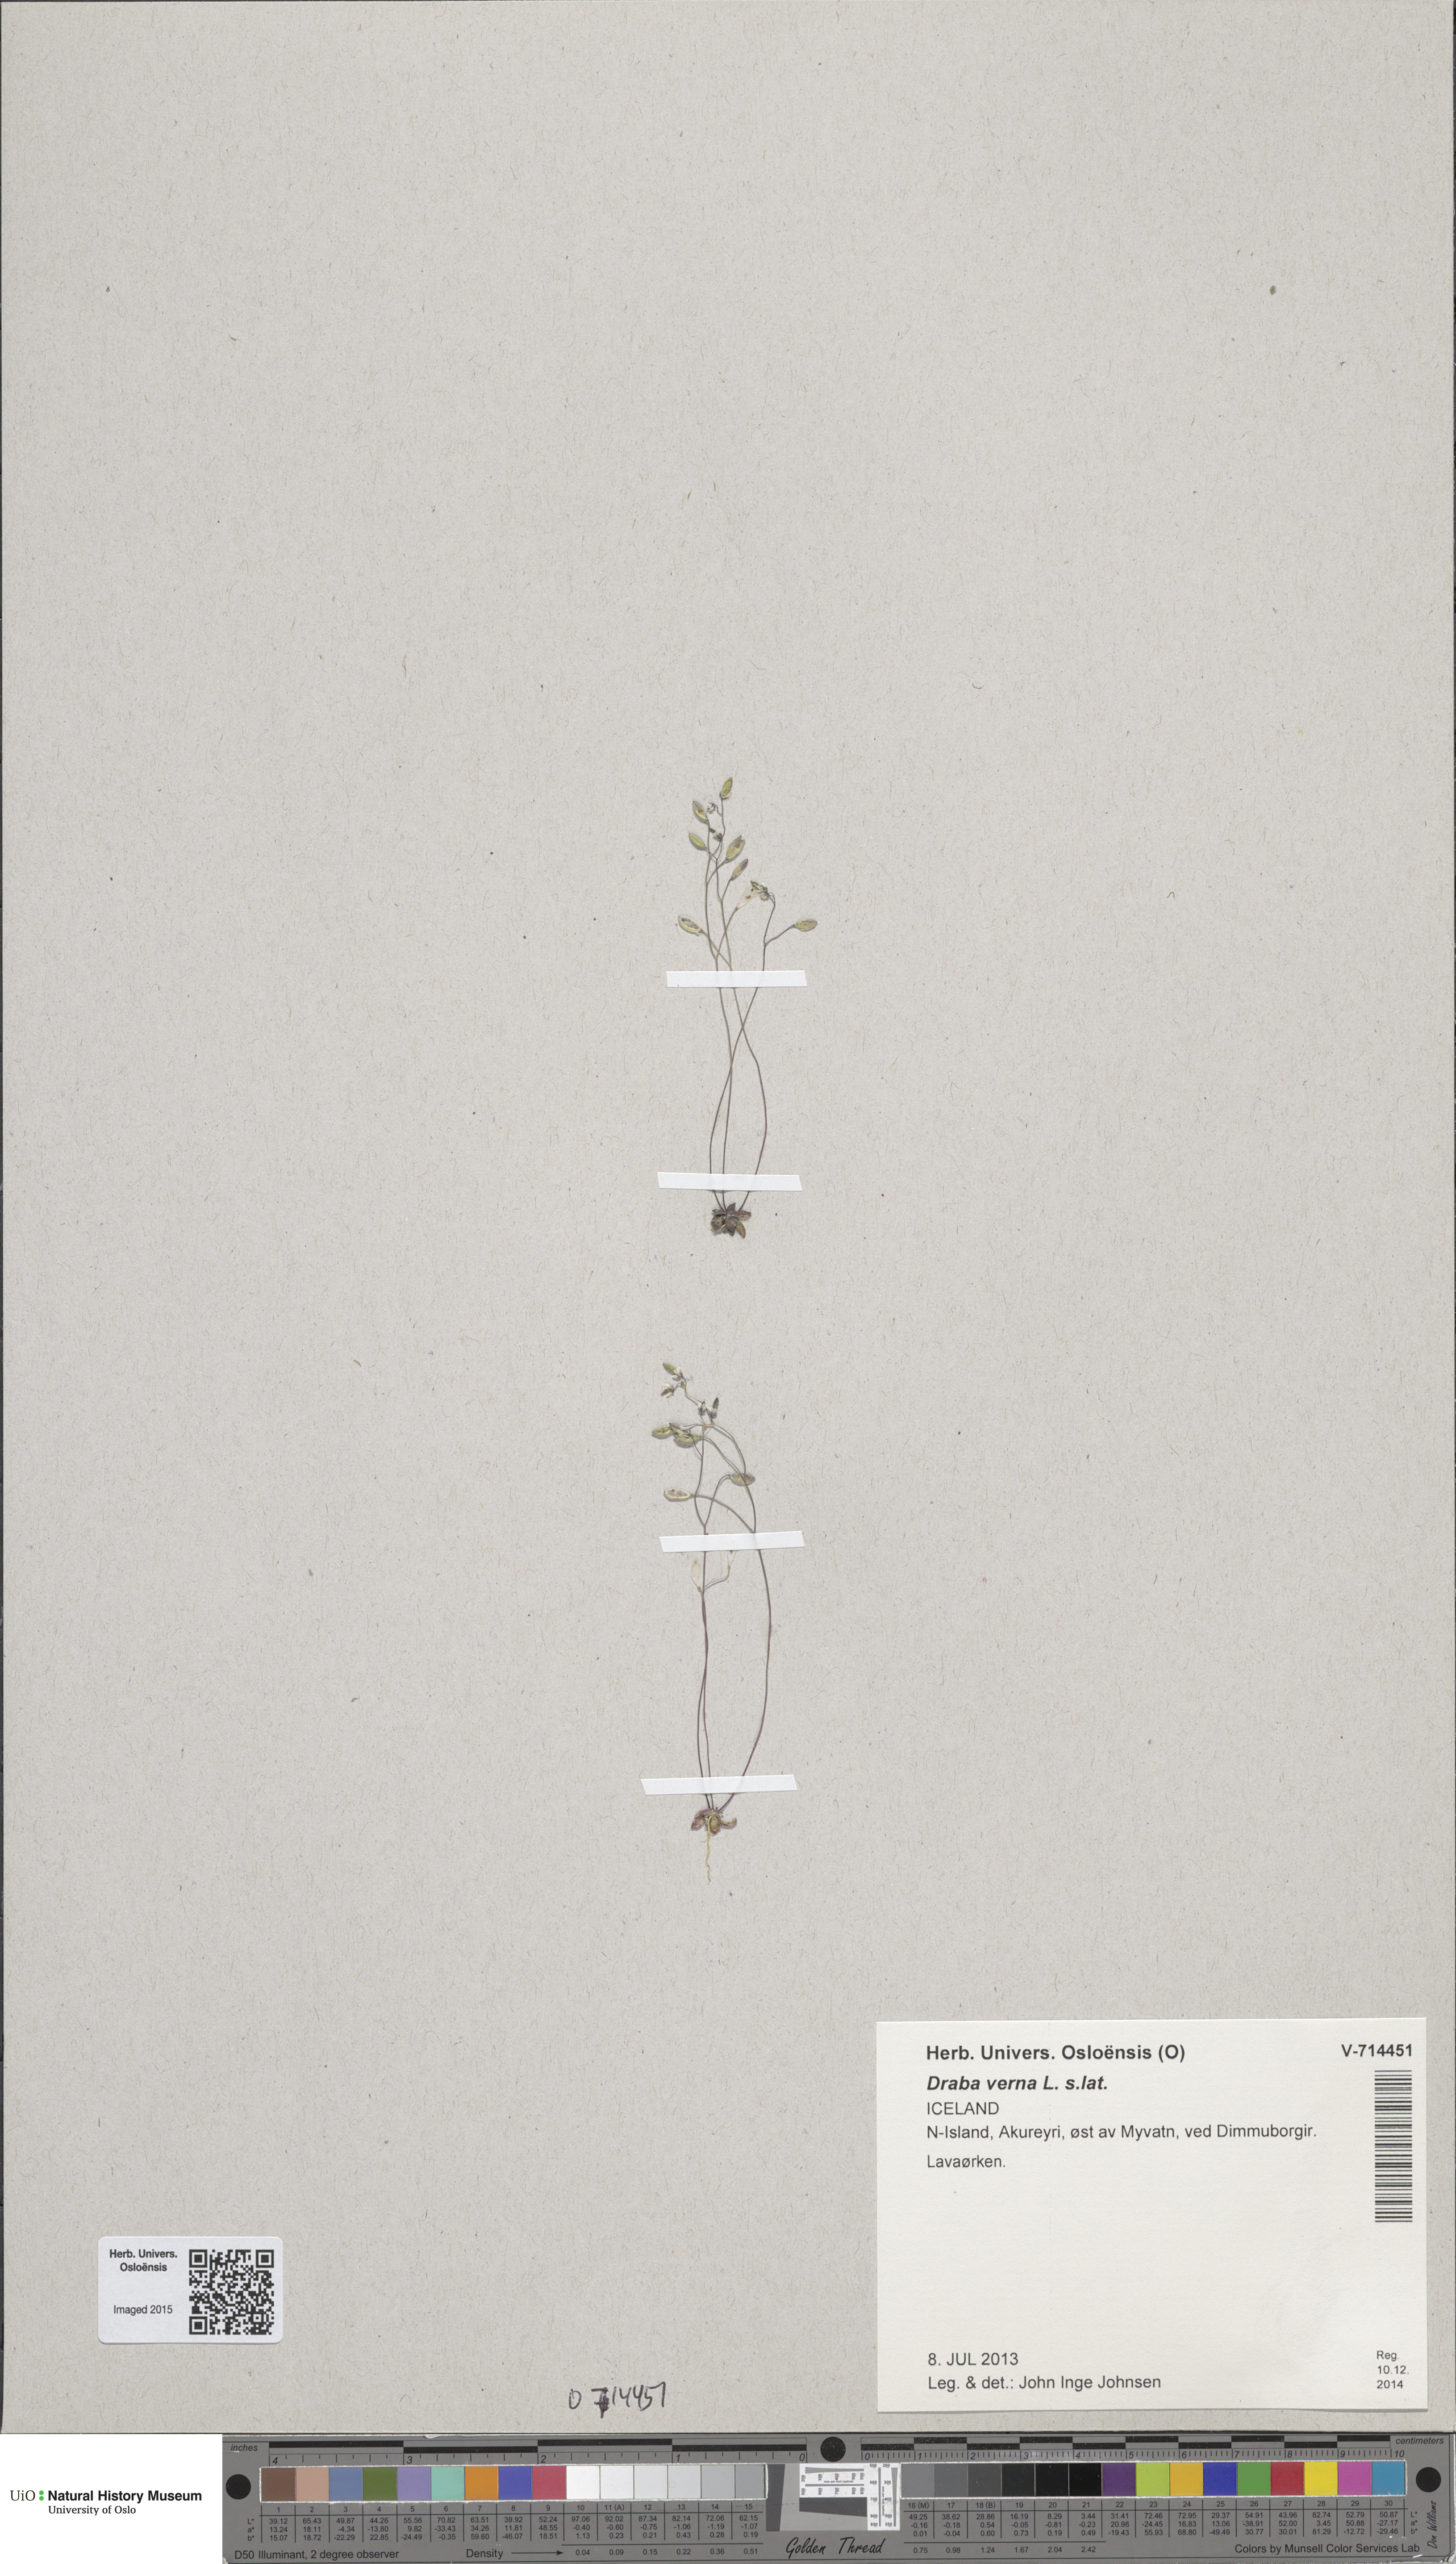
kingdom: Plantae
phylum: Tracheophyta
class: Magnoliopsida
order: Brassicales
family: Brassicaceae
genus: Draba
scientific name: Draba verna
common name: Spring draba
